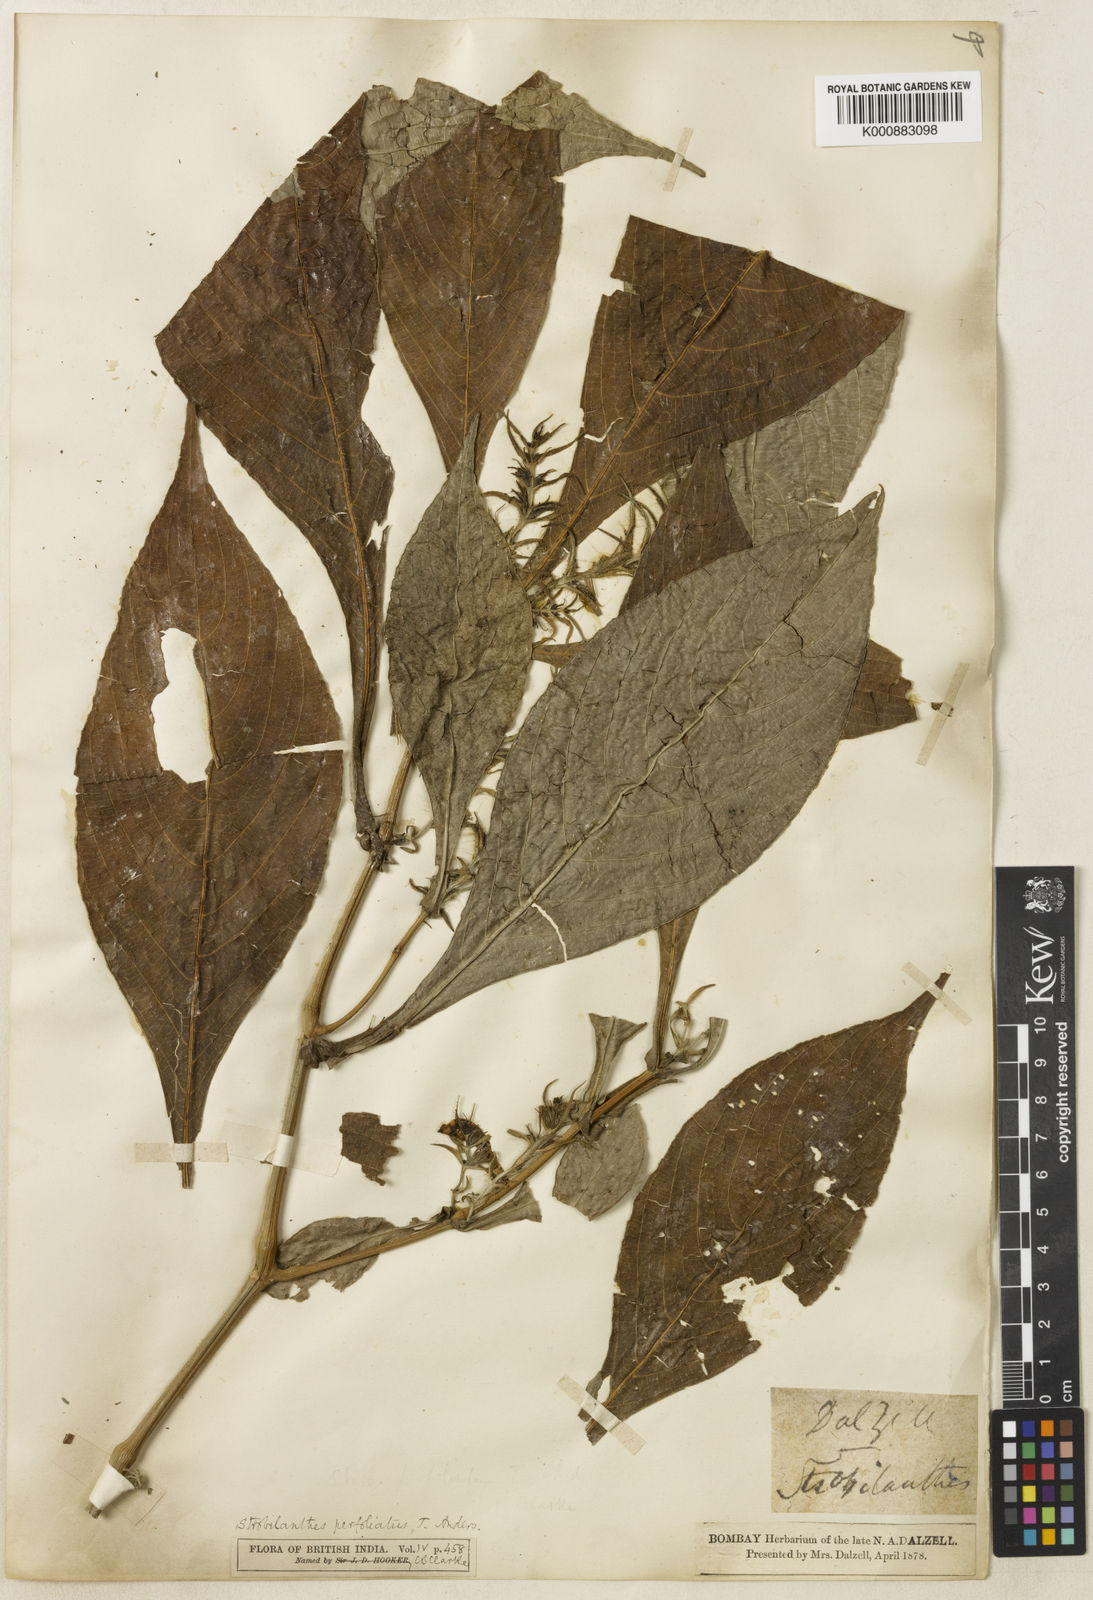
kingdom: Plantae
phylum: Tracheophyta
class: Magnoliopsida
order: Lamiales
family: Acanthaceae
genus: Strobilanthes
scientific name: Strobilanthes integrifolia
